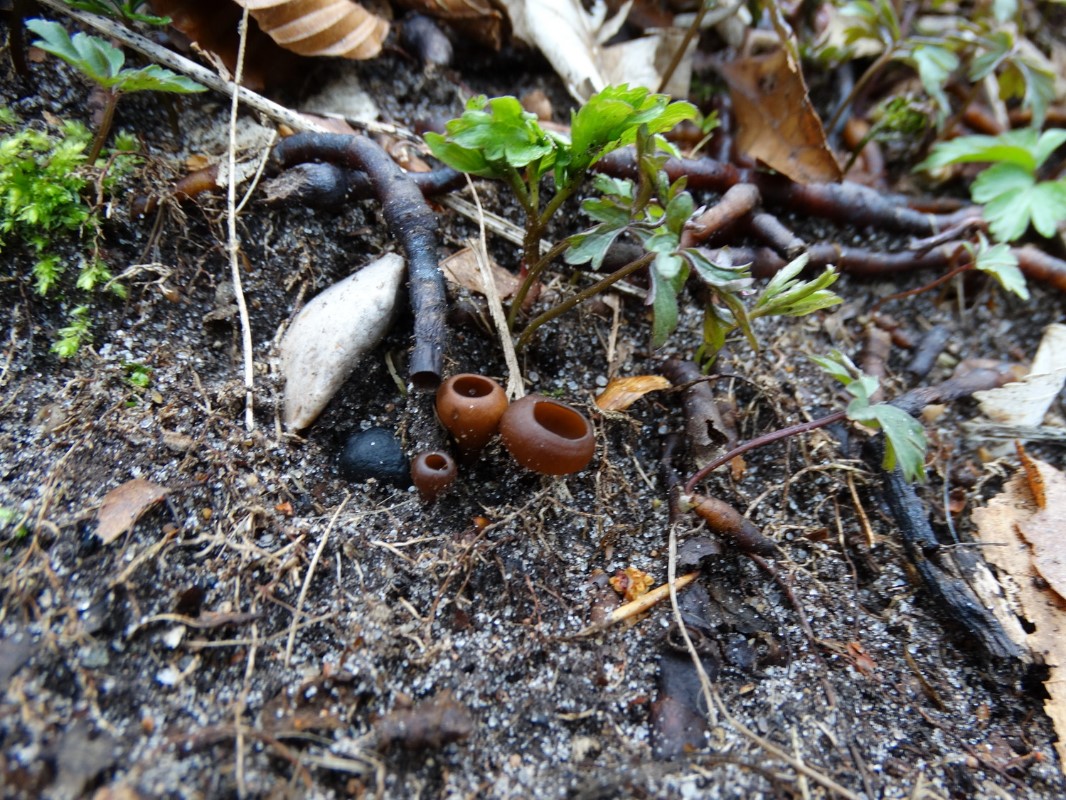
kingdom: Fungi
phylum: Ascomycota
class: Leotiomycetes
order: Helotiales
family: Sclerotiniaceae
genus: Dumontinia
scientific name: Dumontinia tuberosa
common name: anemone-knoldskive
